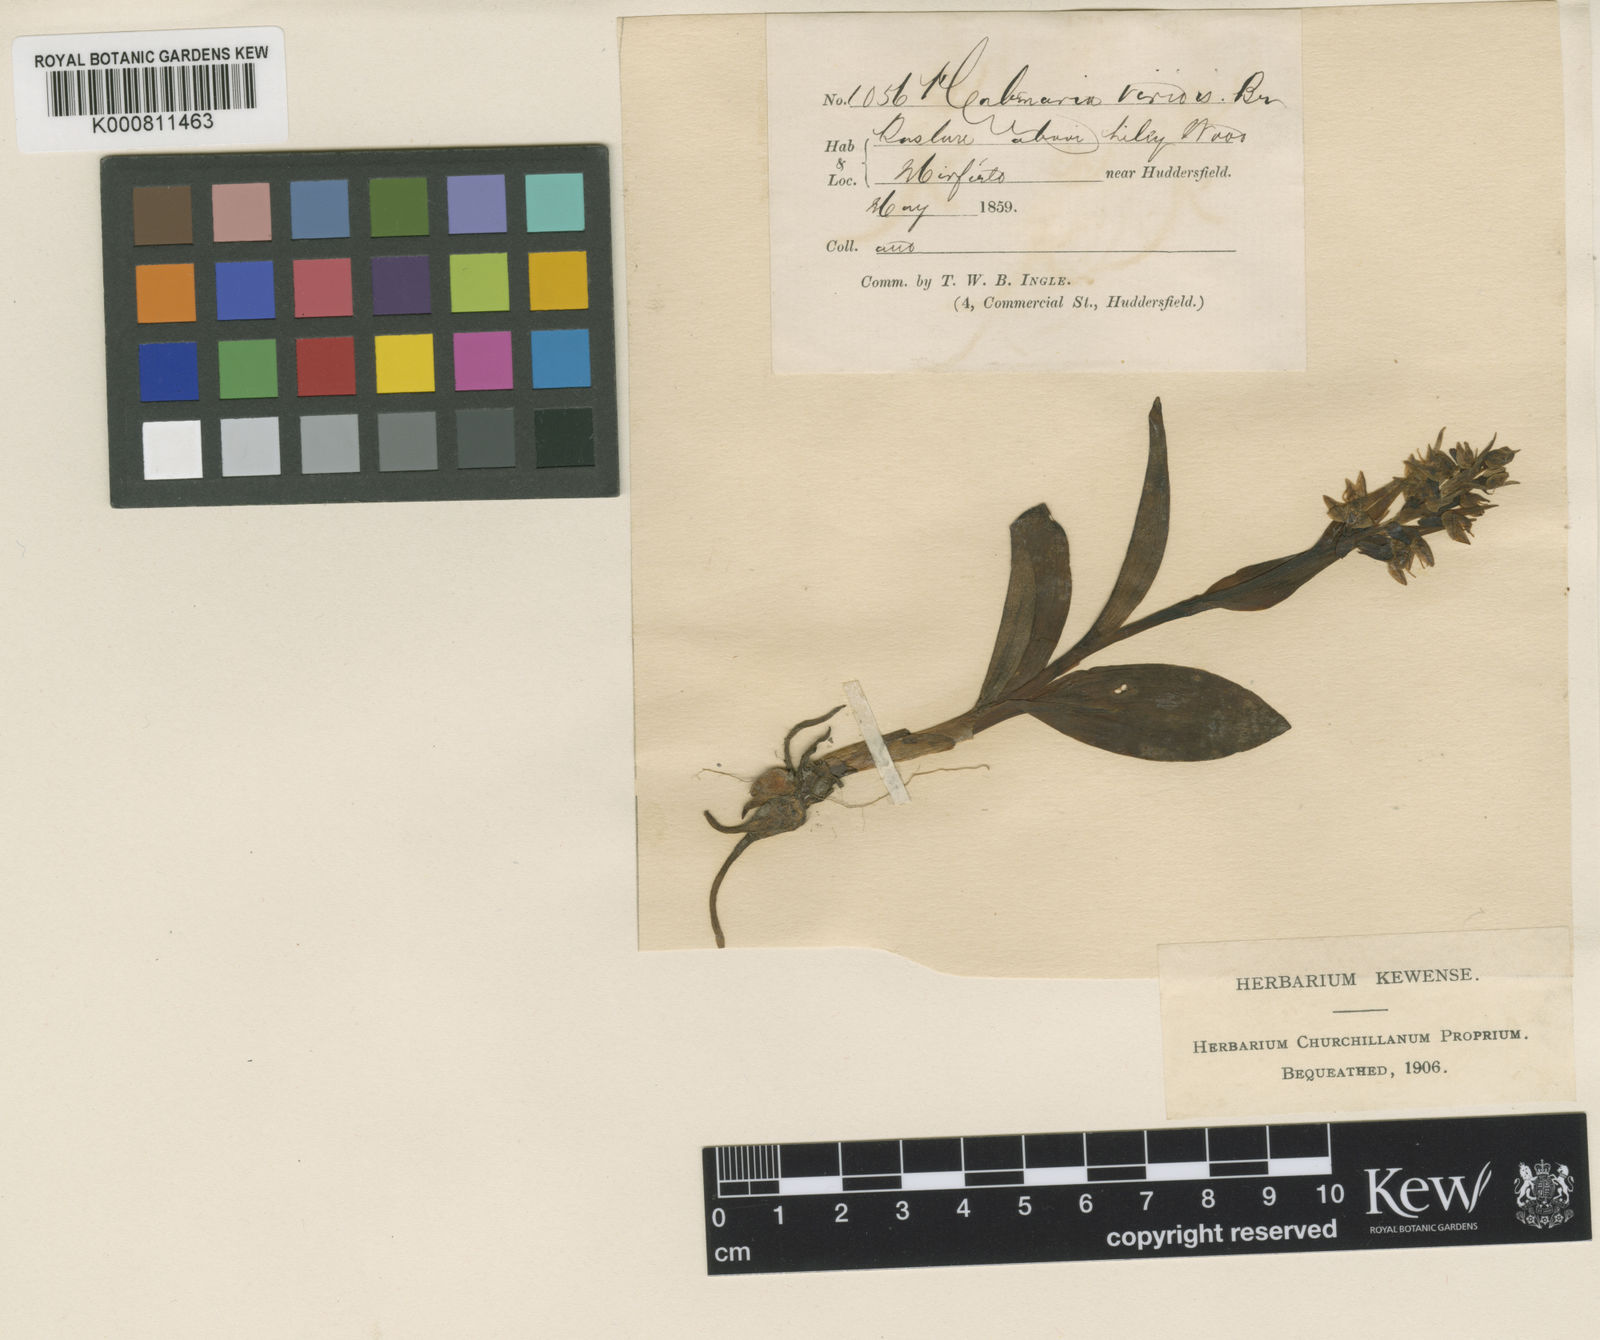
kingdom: Plantae
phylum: Tracheophyta
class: Liliopsida
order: Asparagales
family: Orchidaceae
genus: Dactylorhiza
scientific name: Dactylorhiza viridis
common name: Longbract frog orchid
